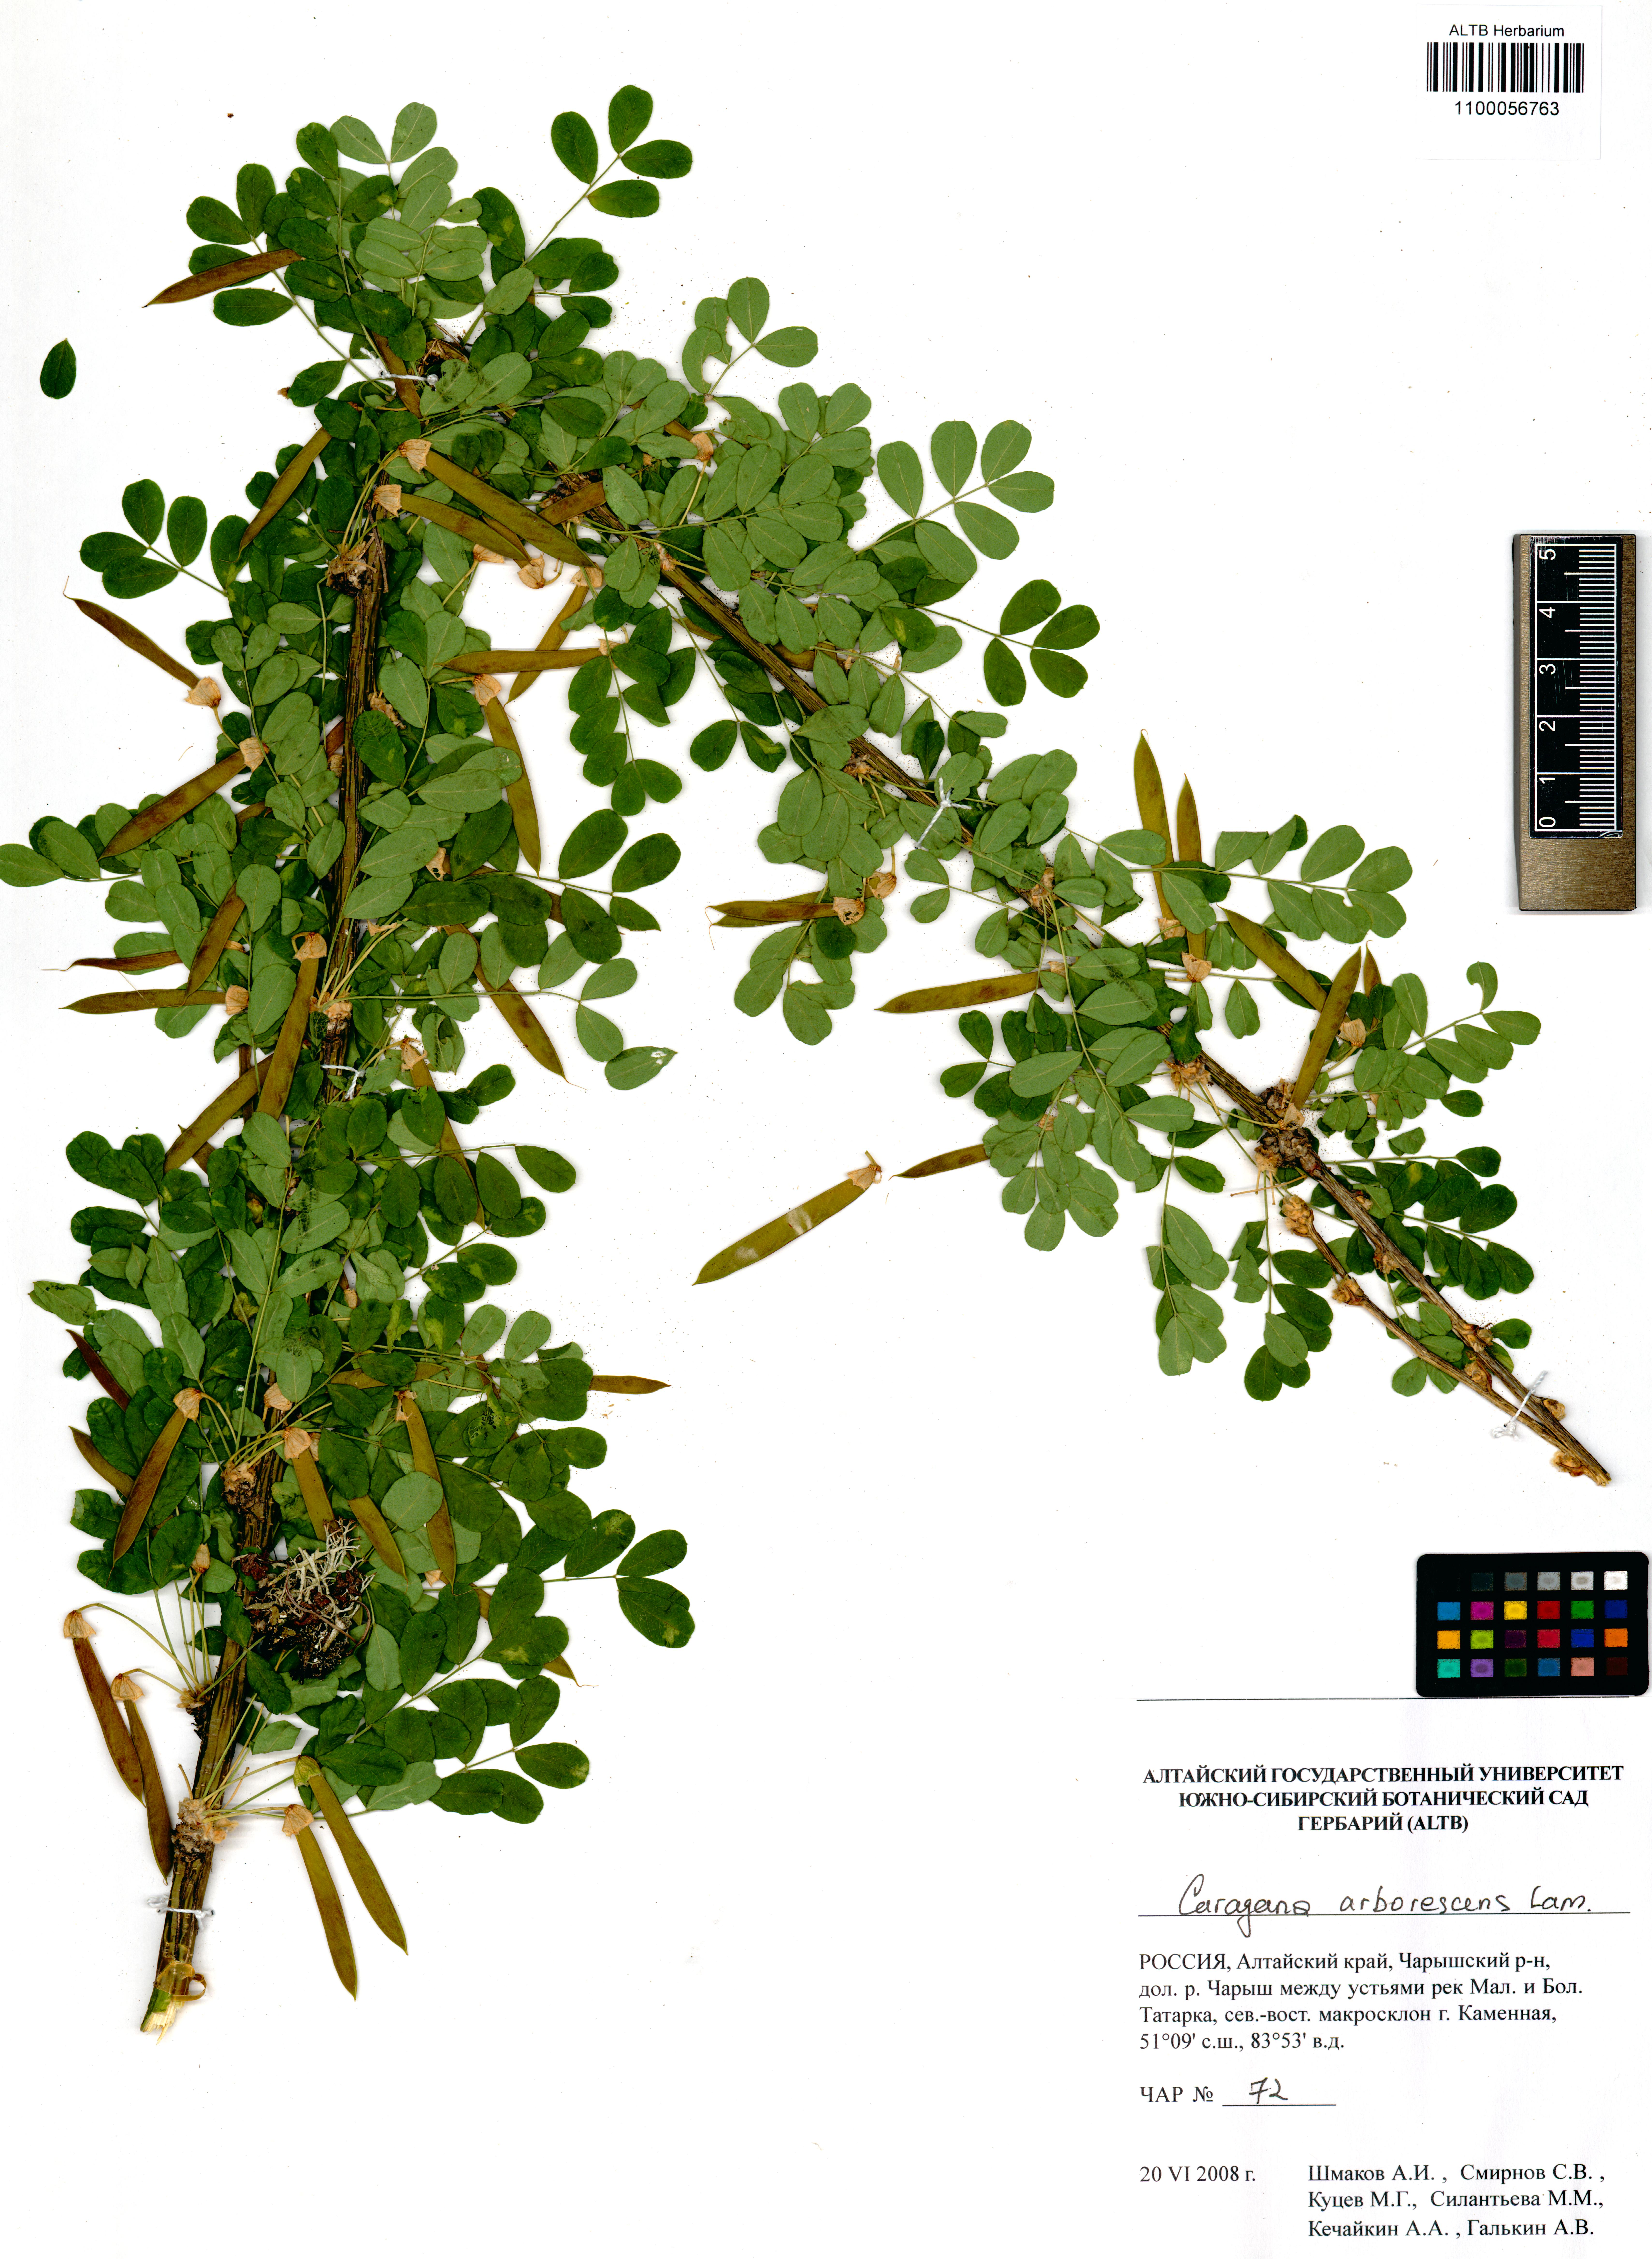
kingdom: Plantae
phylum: Tracheophyta
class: Magnoliopsida
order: Fabales
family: Fabaceae
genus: Caragana
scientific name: Caragana arborescens
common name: Siberian peashrub
